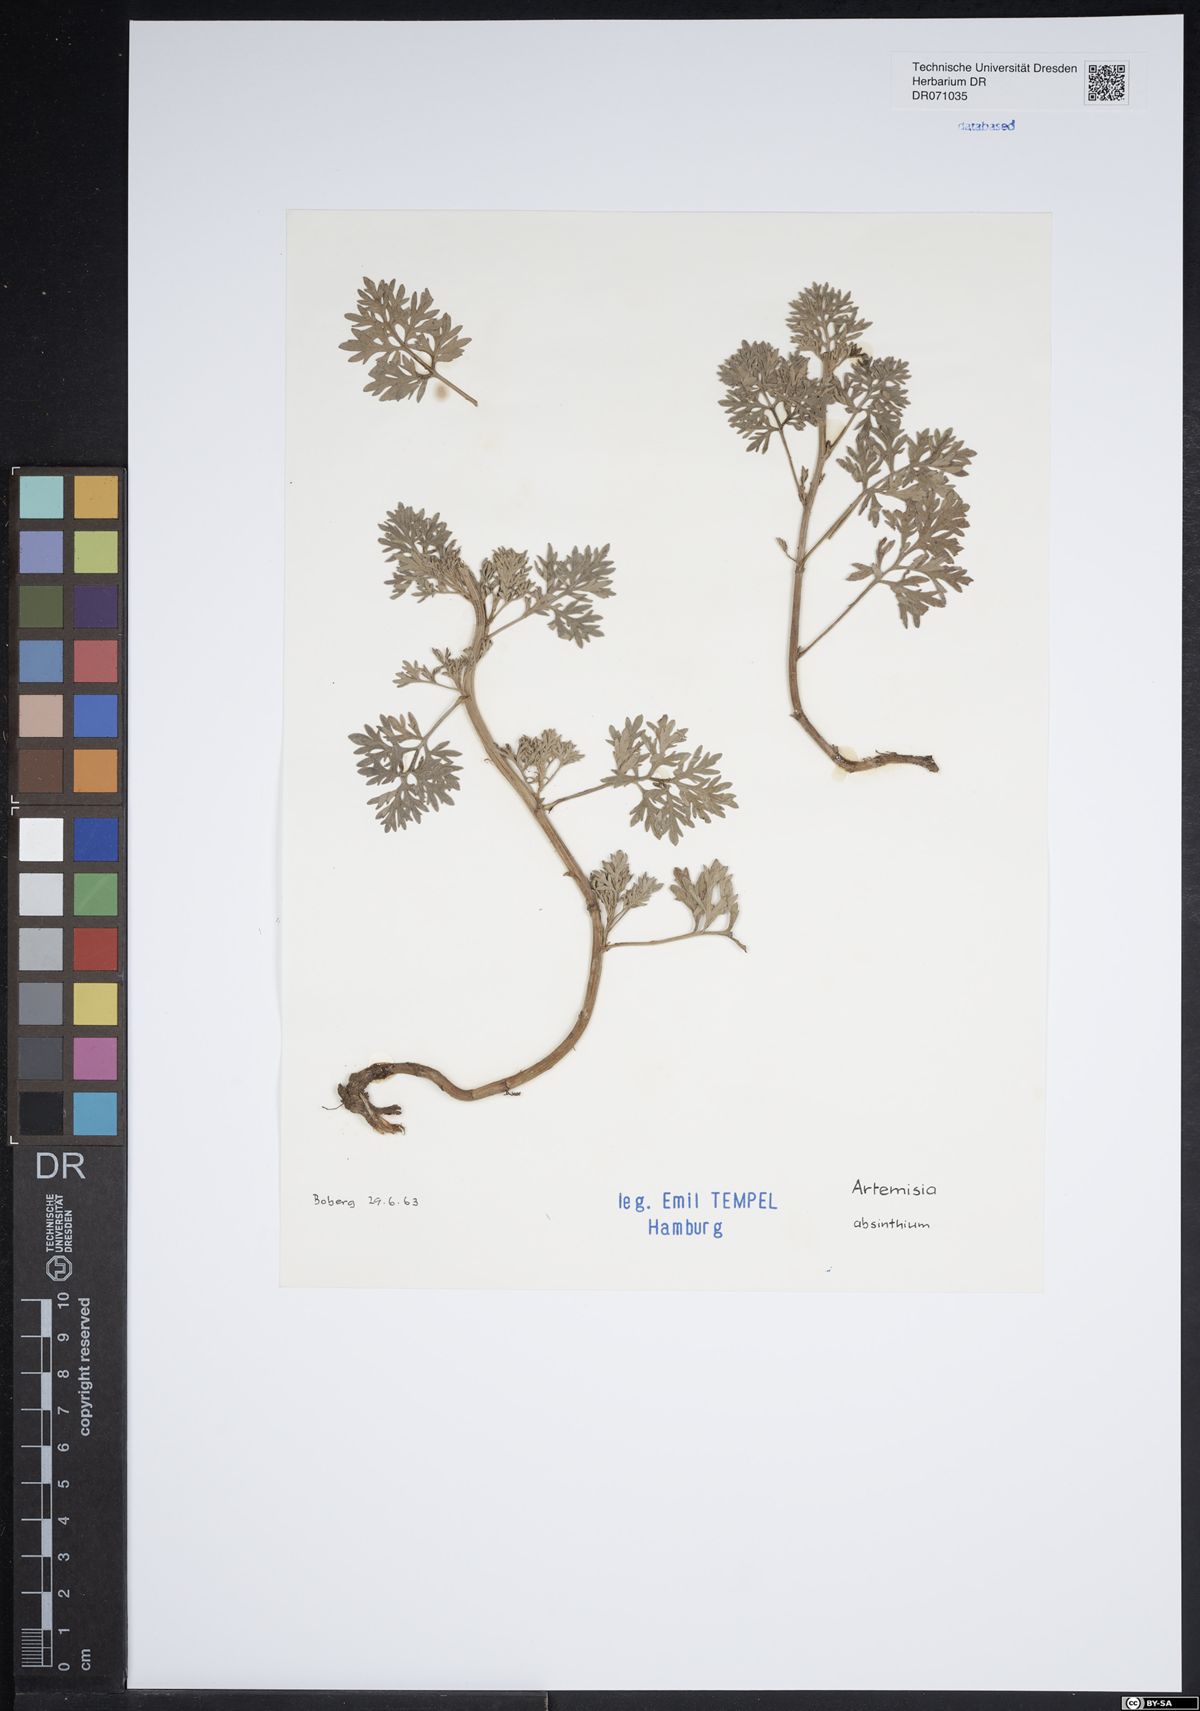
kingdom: Plantae
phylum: Tracheophyta
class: Magnoliopsida
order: Asterales
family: Asteraceae
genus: Artemisia
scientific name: Artemisia absinthium
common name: Wormwood
